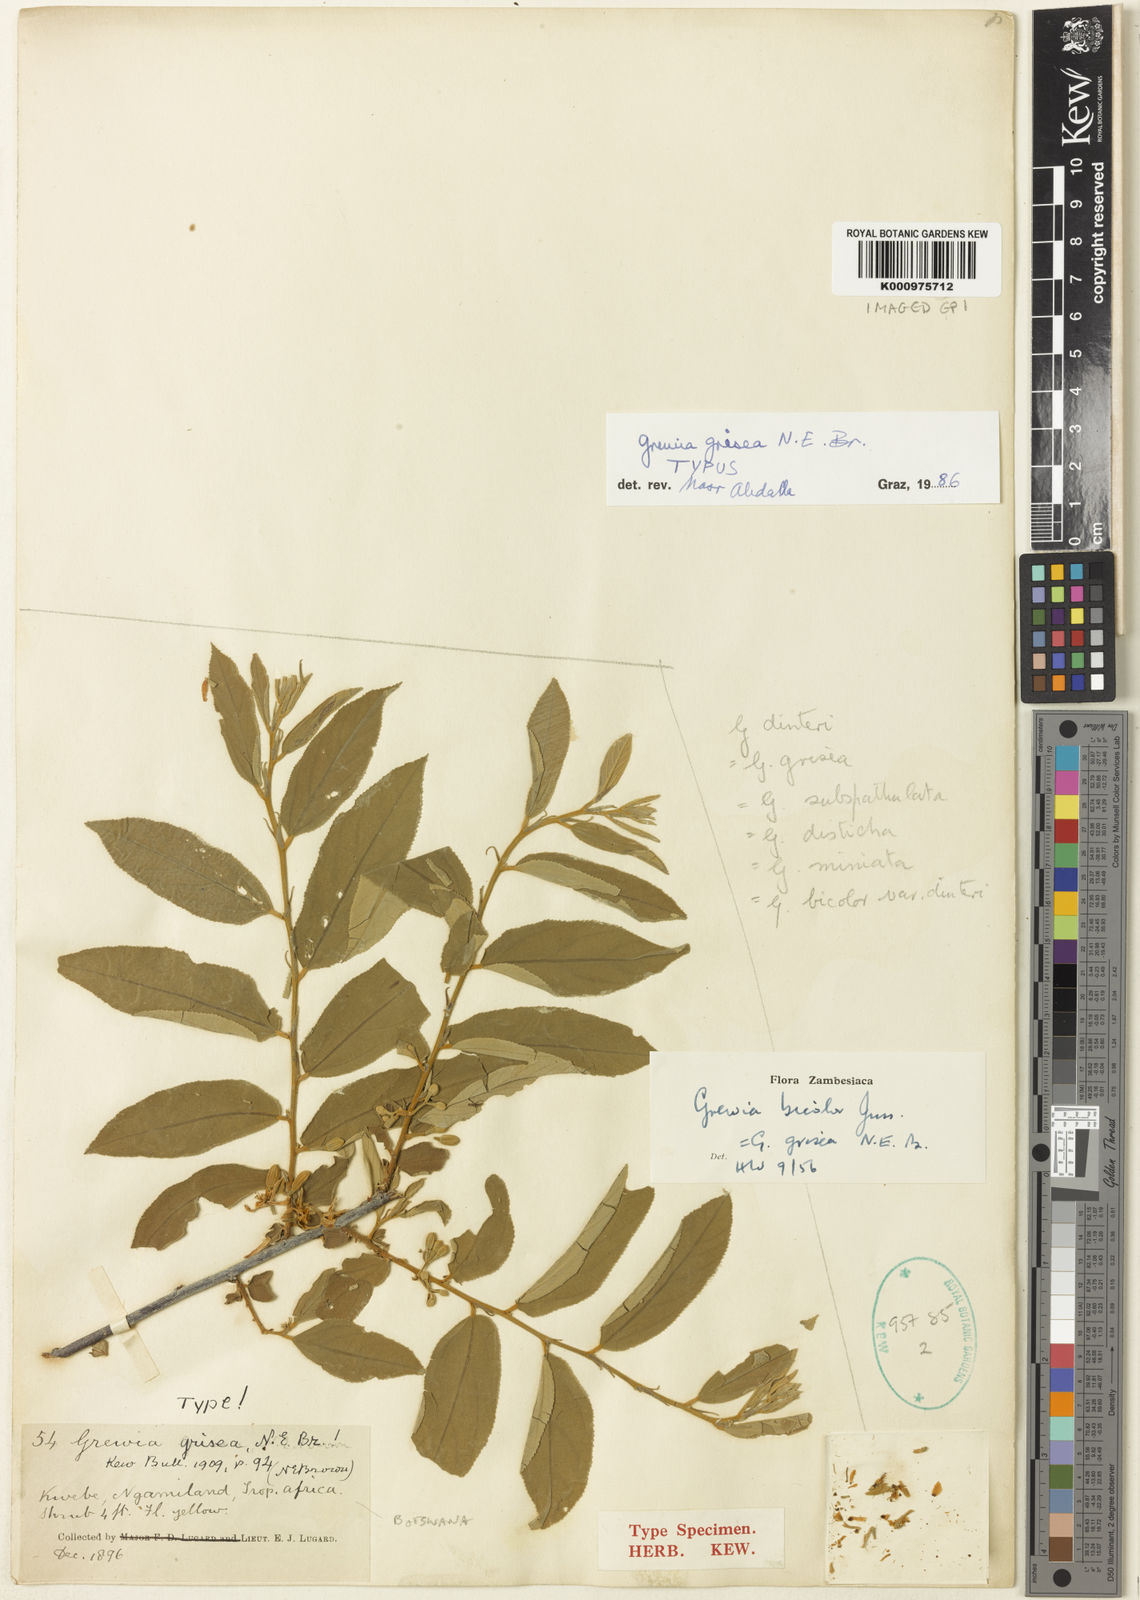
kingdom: Plantae
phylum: Tracheophyta
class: Magnoliopsida
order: Malvales
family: Malvaceae
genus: Grewia
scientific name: Grewia bicolor
